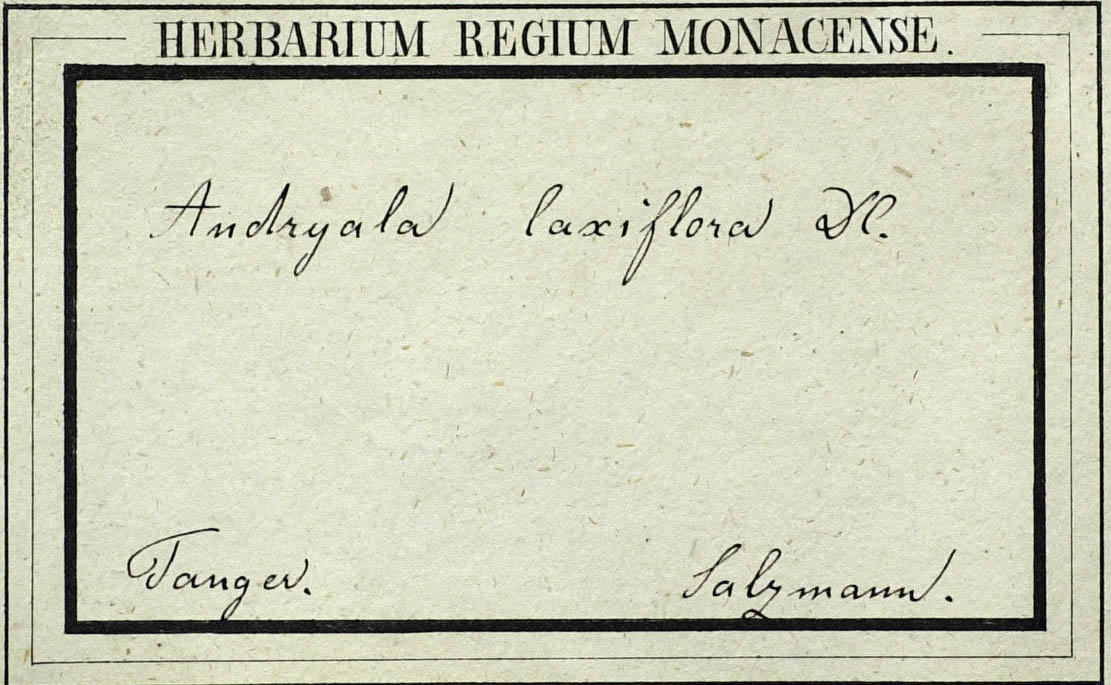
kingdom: Plantae
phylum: Tracheophyta
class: Magnoliopsida
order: Asterales
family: Asteraceae
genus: Andryala
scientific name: Andryala rothia
